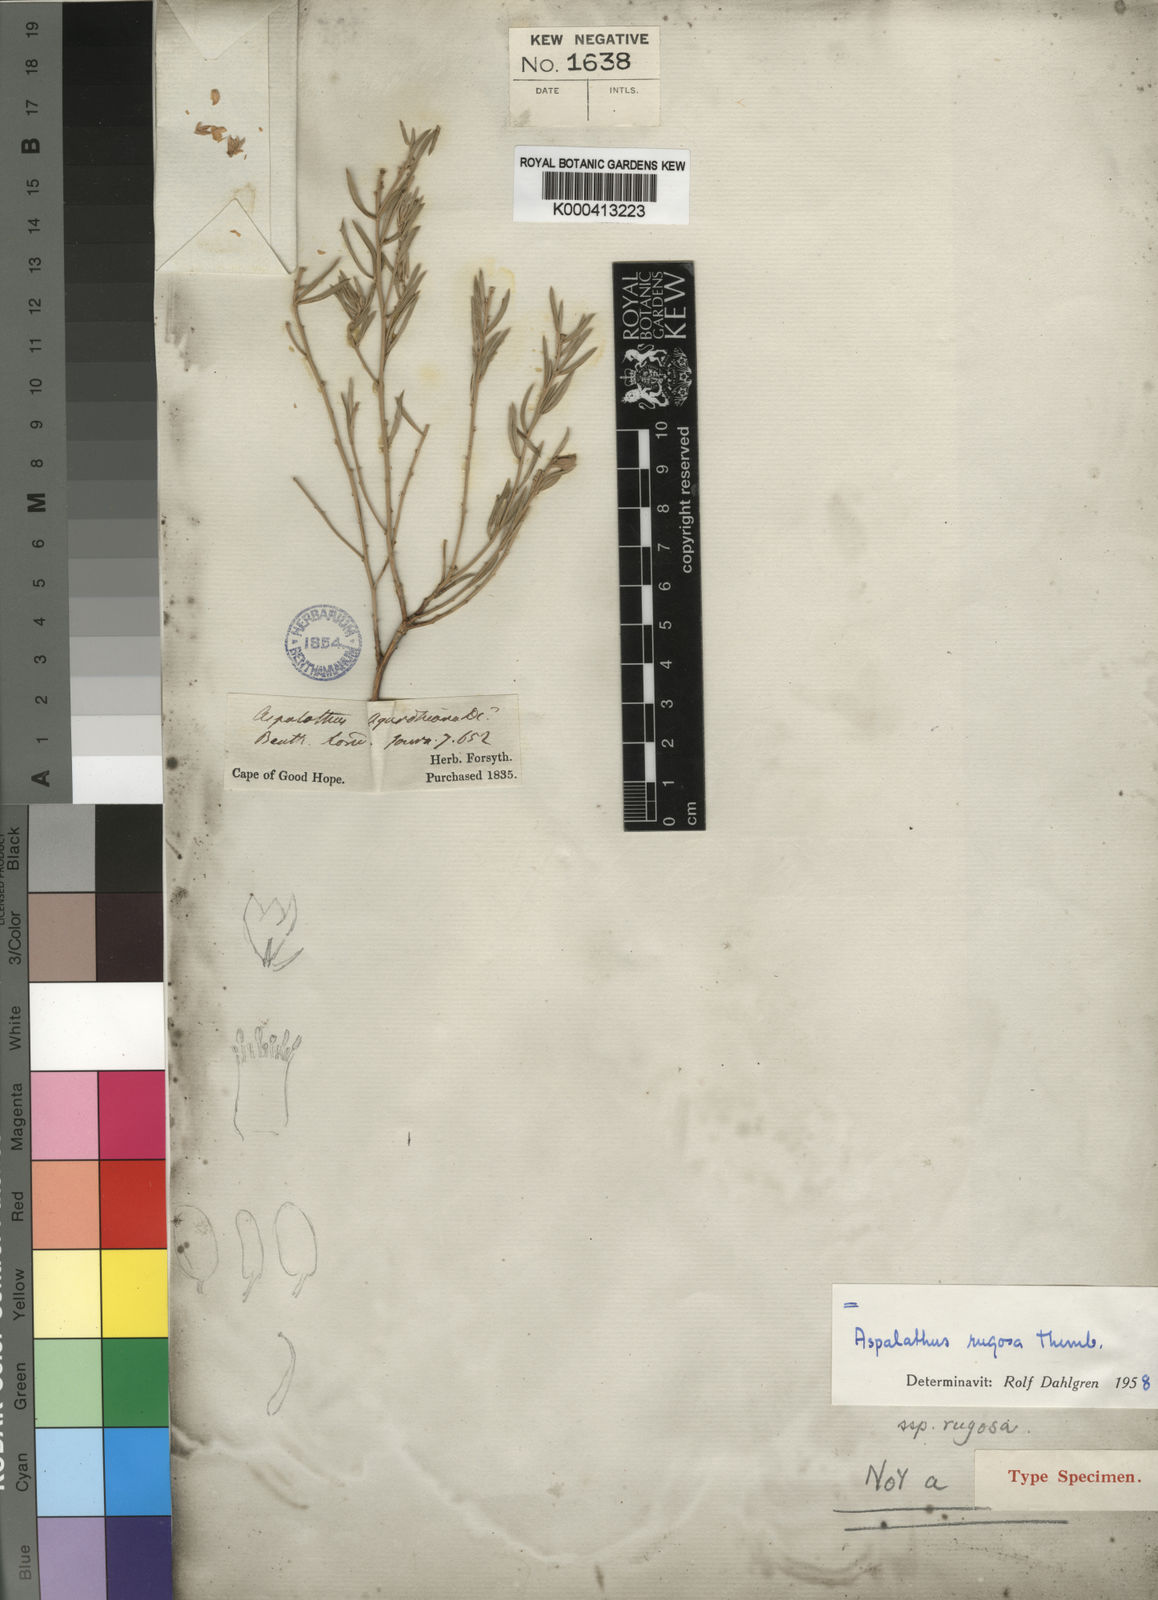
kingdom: Plantae
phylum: Tracheophyta
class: Magnoliopsida
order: Fabales
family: Fabaceae
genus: Aspalathus
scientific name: Aspalathus rugosa
